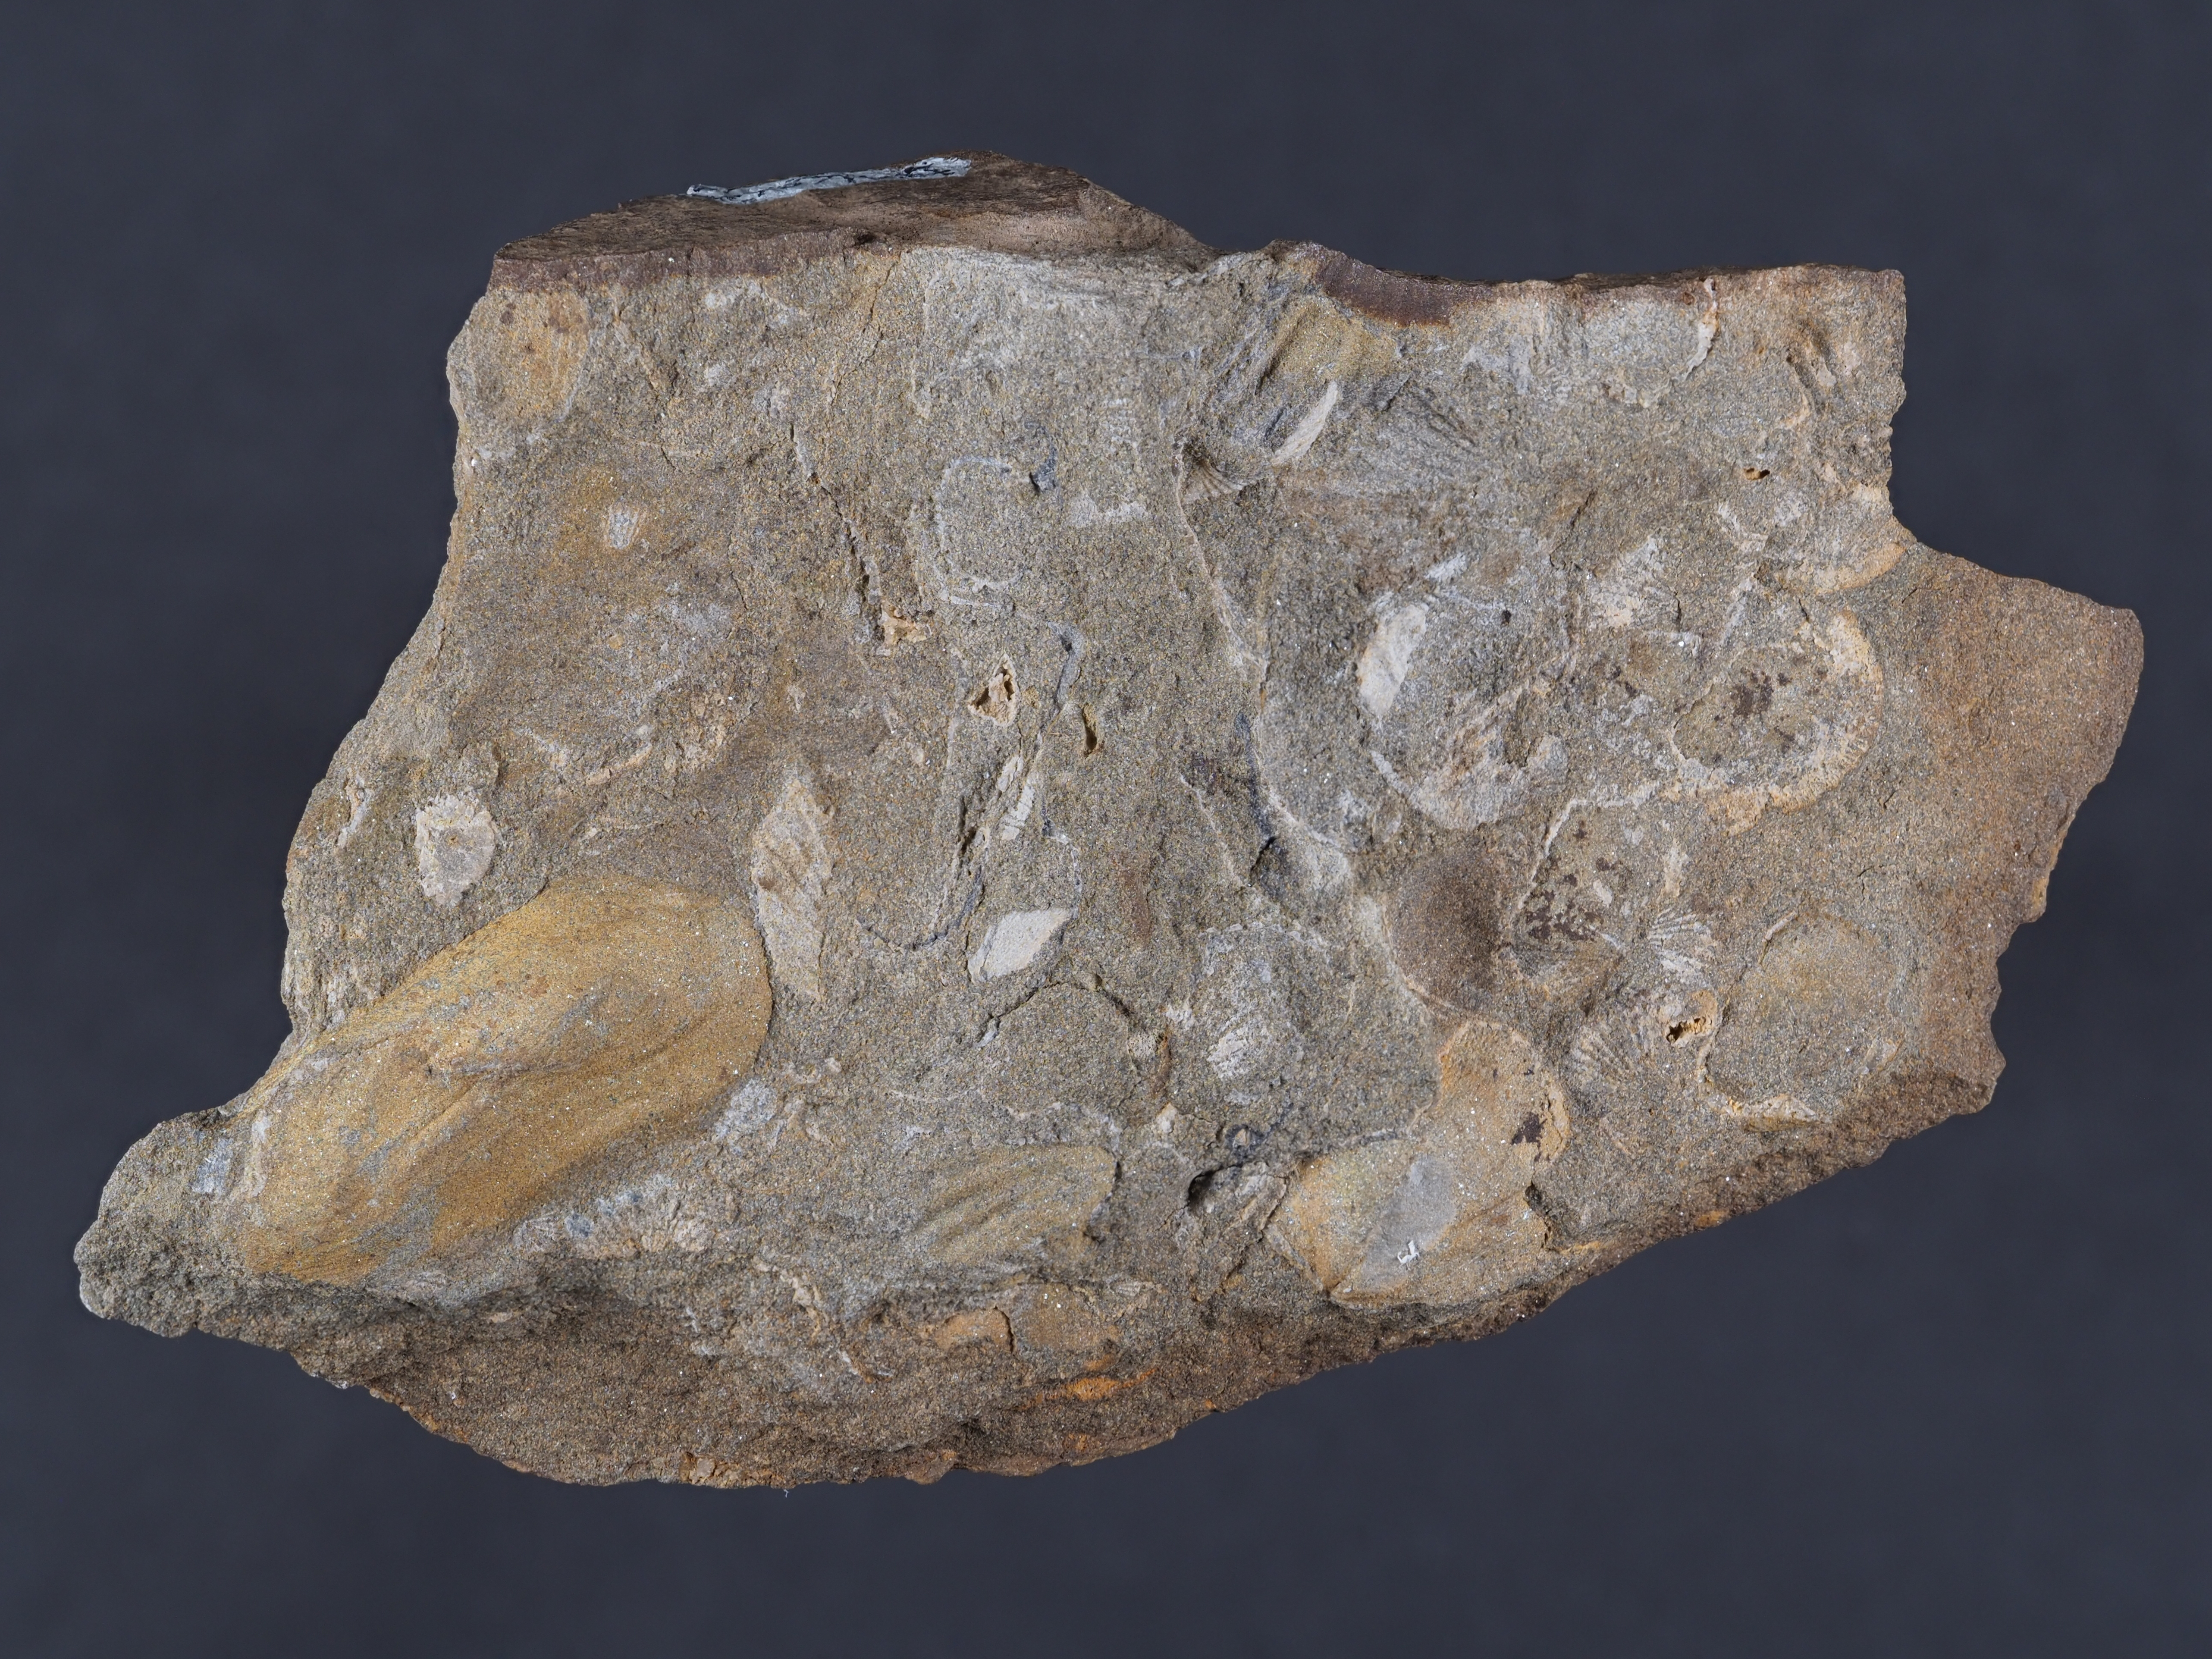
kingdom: Animalia
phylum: Mollusca
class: Bivalvia
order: Modiomorphida
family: Modiomorphidae
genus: Modiomorpha
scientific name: Modiomorpha
